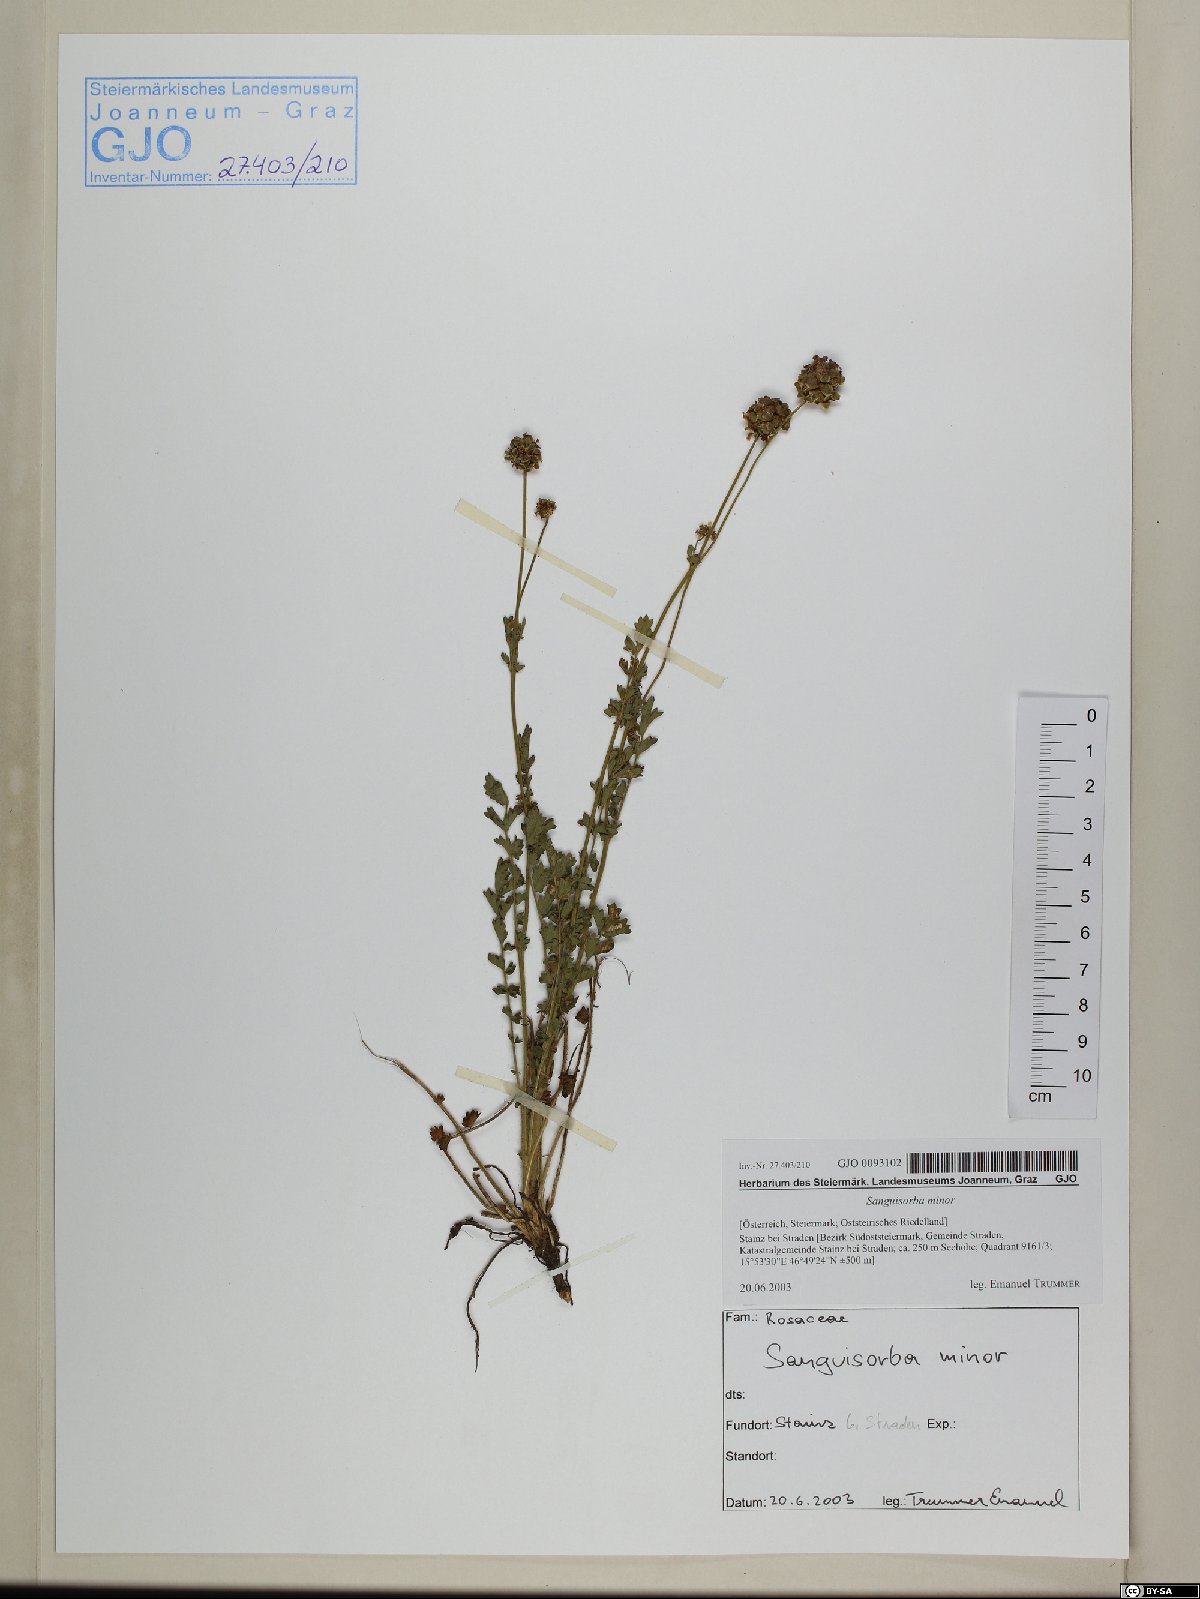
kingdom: Plantae
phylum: Tracheophyta
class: Magnoliopsida
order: Rosales
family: Rosaceae
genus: Poterium
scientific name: Poterium sanguisorba
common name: Salad burnet
